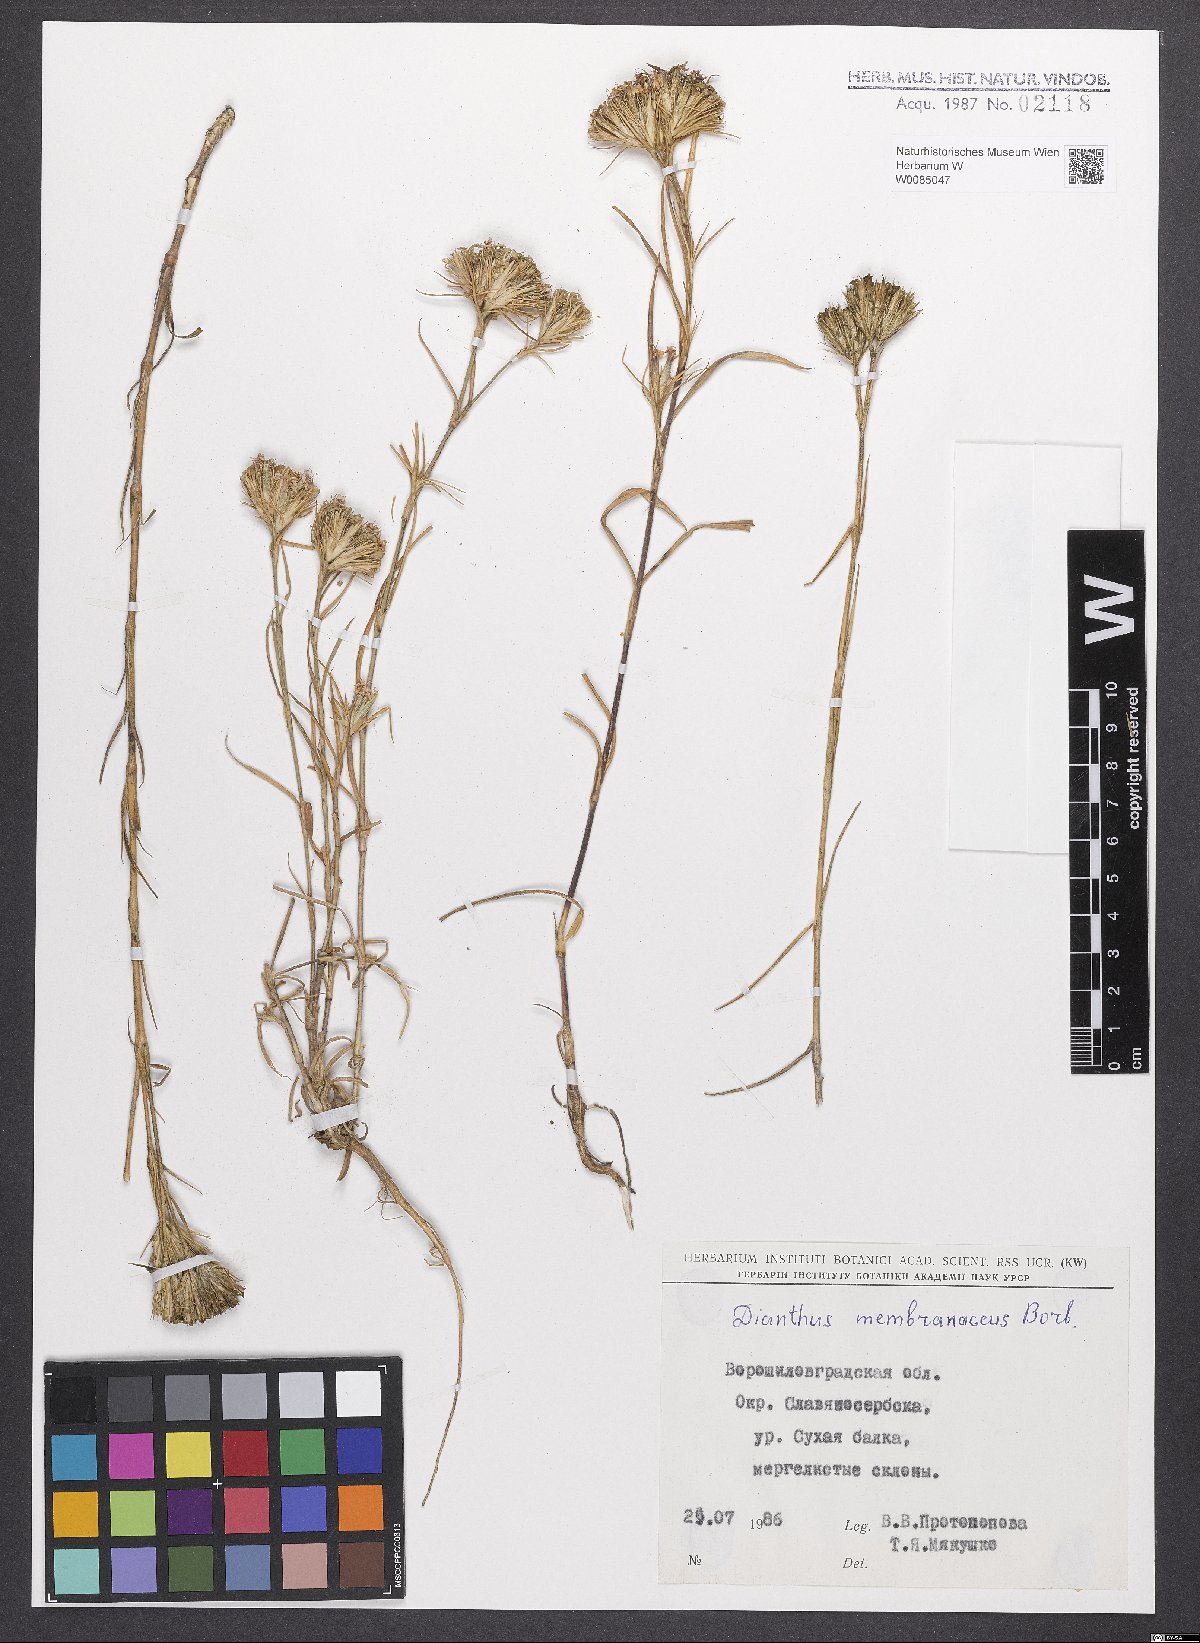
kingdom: Plantae
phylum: Tracheophyta
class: Magnoliopsida
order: Caryophyllales
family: Caryophyllaceae
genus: Dianthus
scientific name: Dianthus membranaceus
